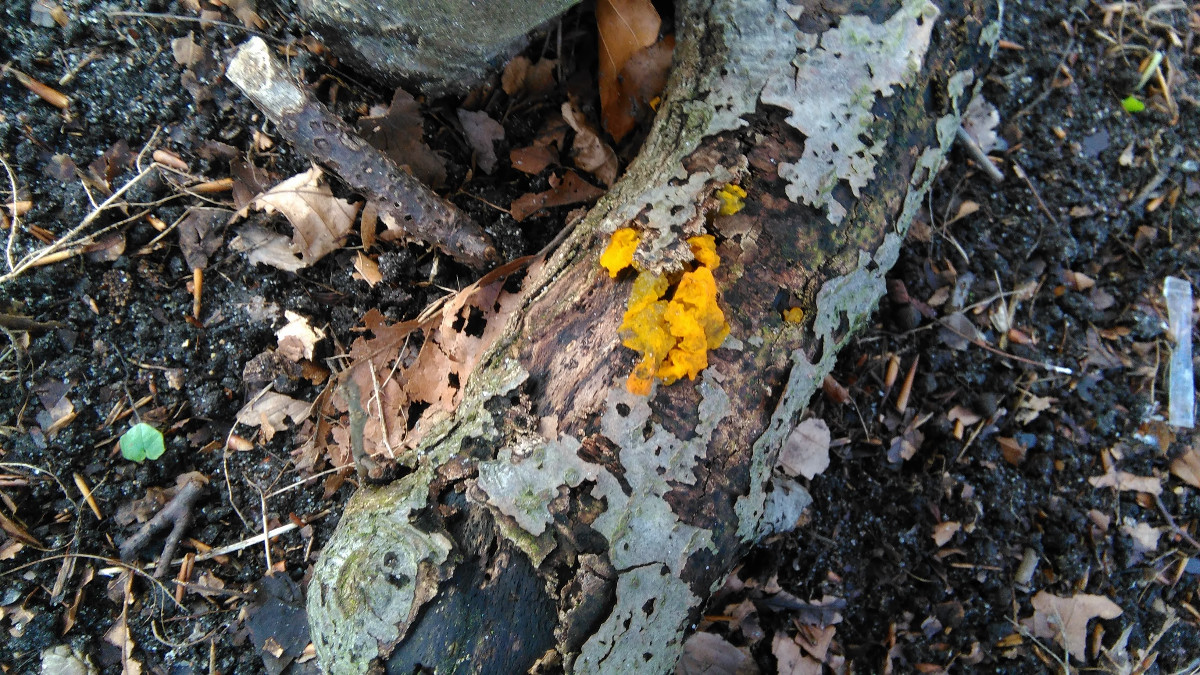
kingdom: Fungi
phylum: Basidiomycota
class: Tremellomycetes
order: Tremellales
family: Tremellaceae
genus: Tremella
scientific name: Tremella mesenterica
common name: gul bævresvamp
